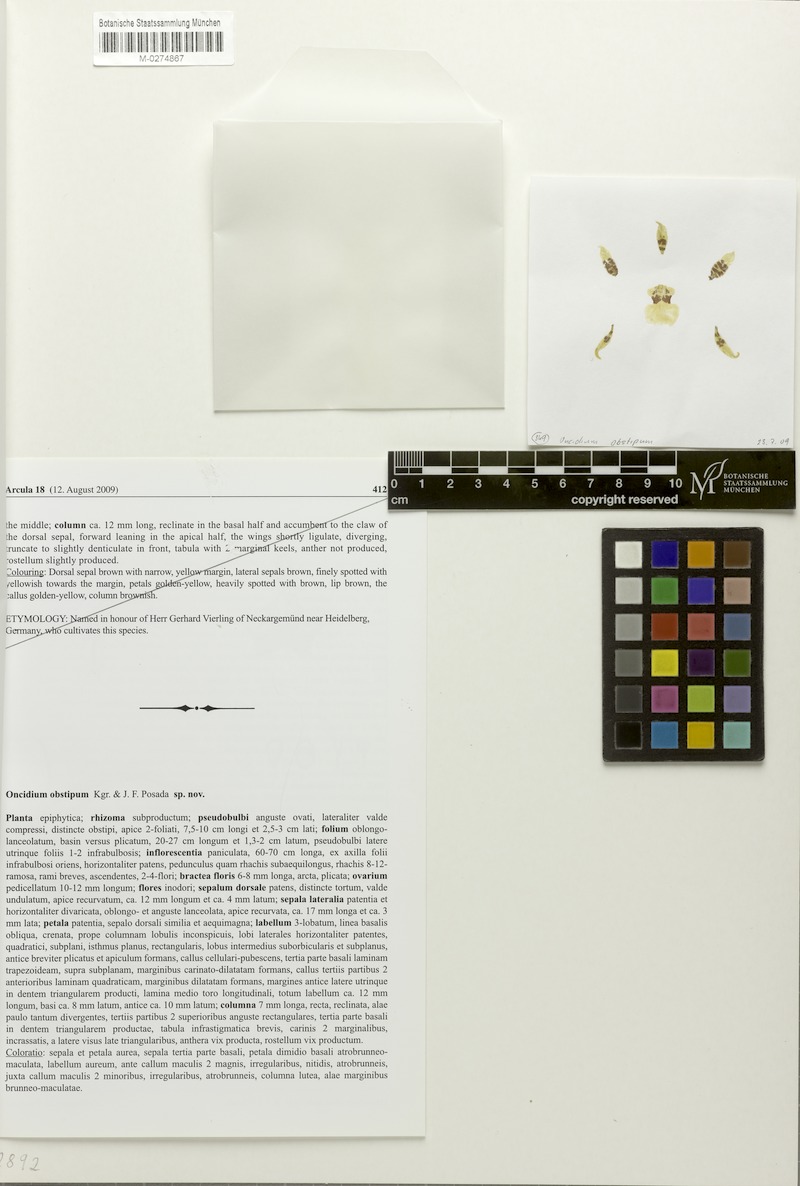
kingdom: Plantae
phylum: Tracheophyta
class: Liliopsida
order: Asparagales
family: Orchidaceae
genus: Oncidium
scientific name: Oncidium obstipum
